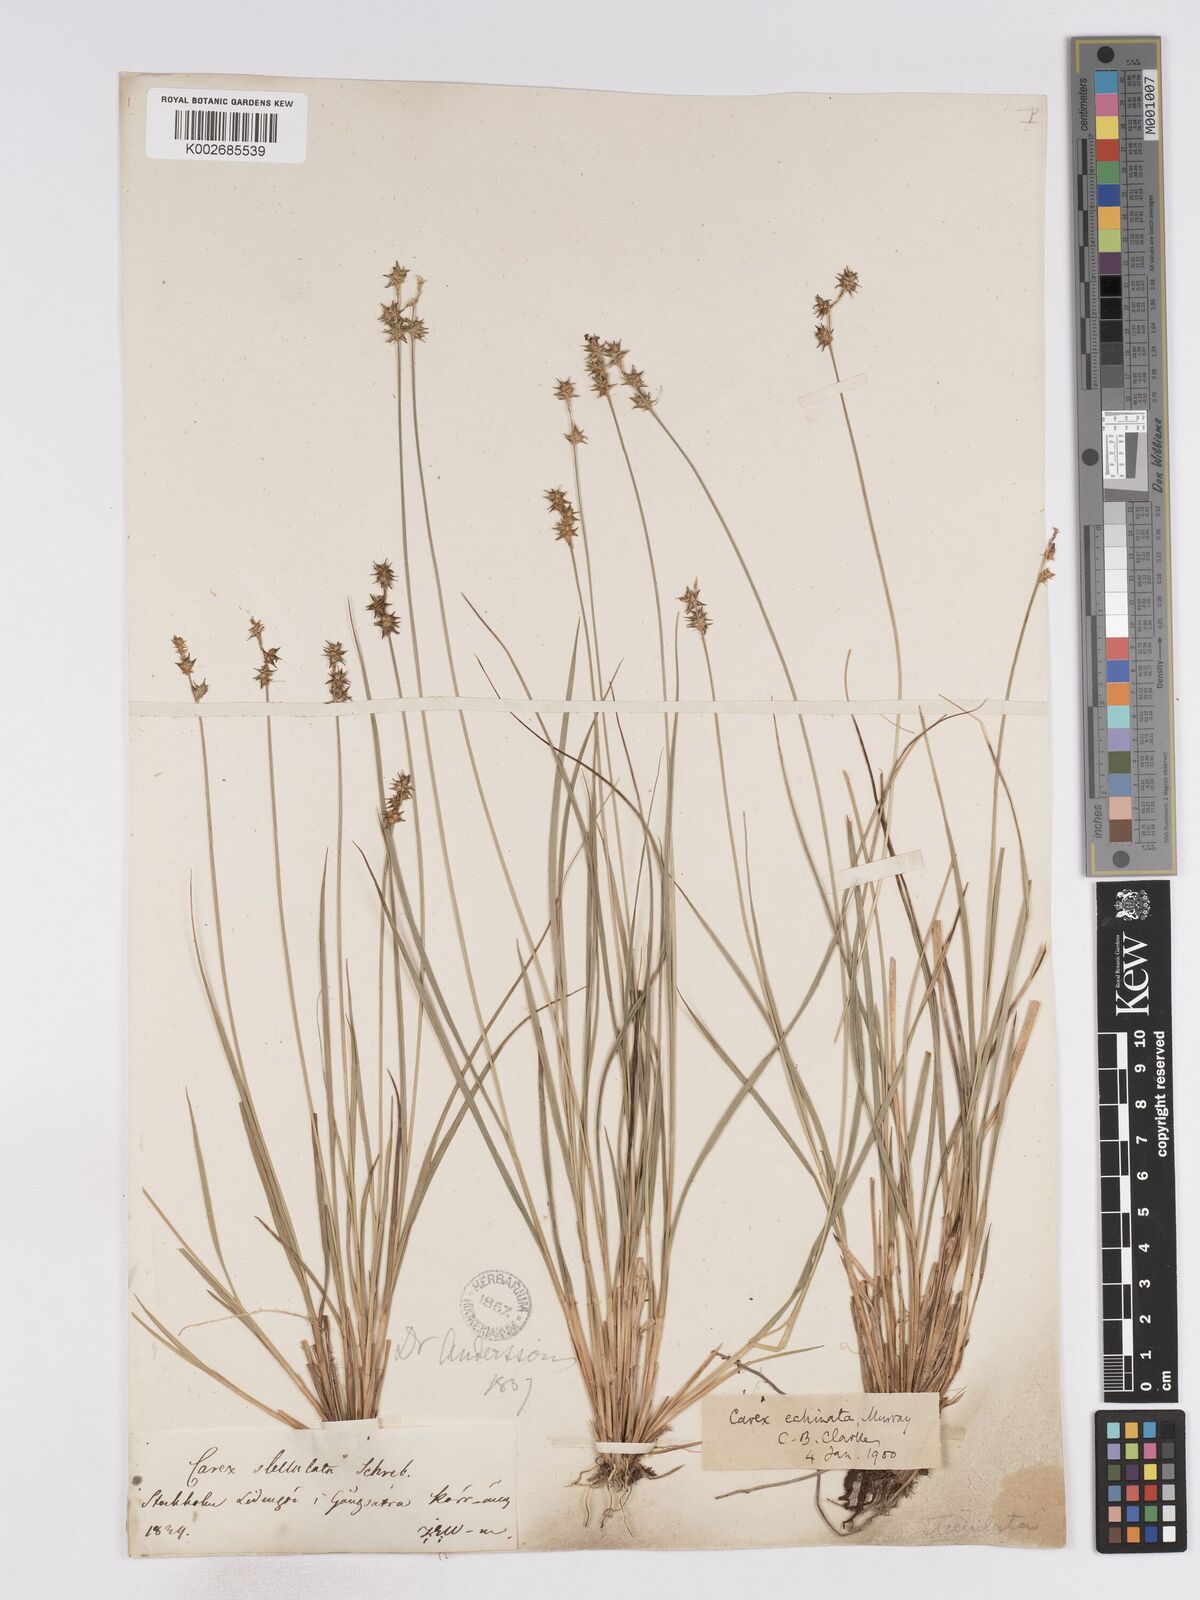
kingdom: Plantae
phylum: Tracheophyta
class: Liliopsida
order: Poales
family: Cyperaceae
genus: Carex
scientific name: Carex echinata
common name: Star sedge
